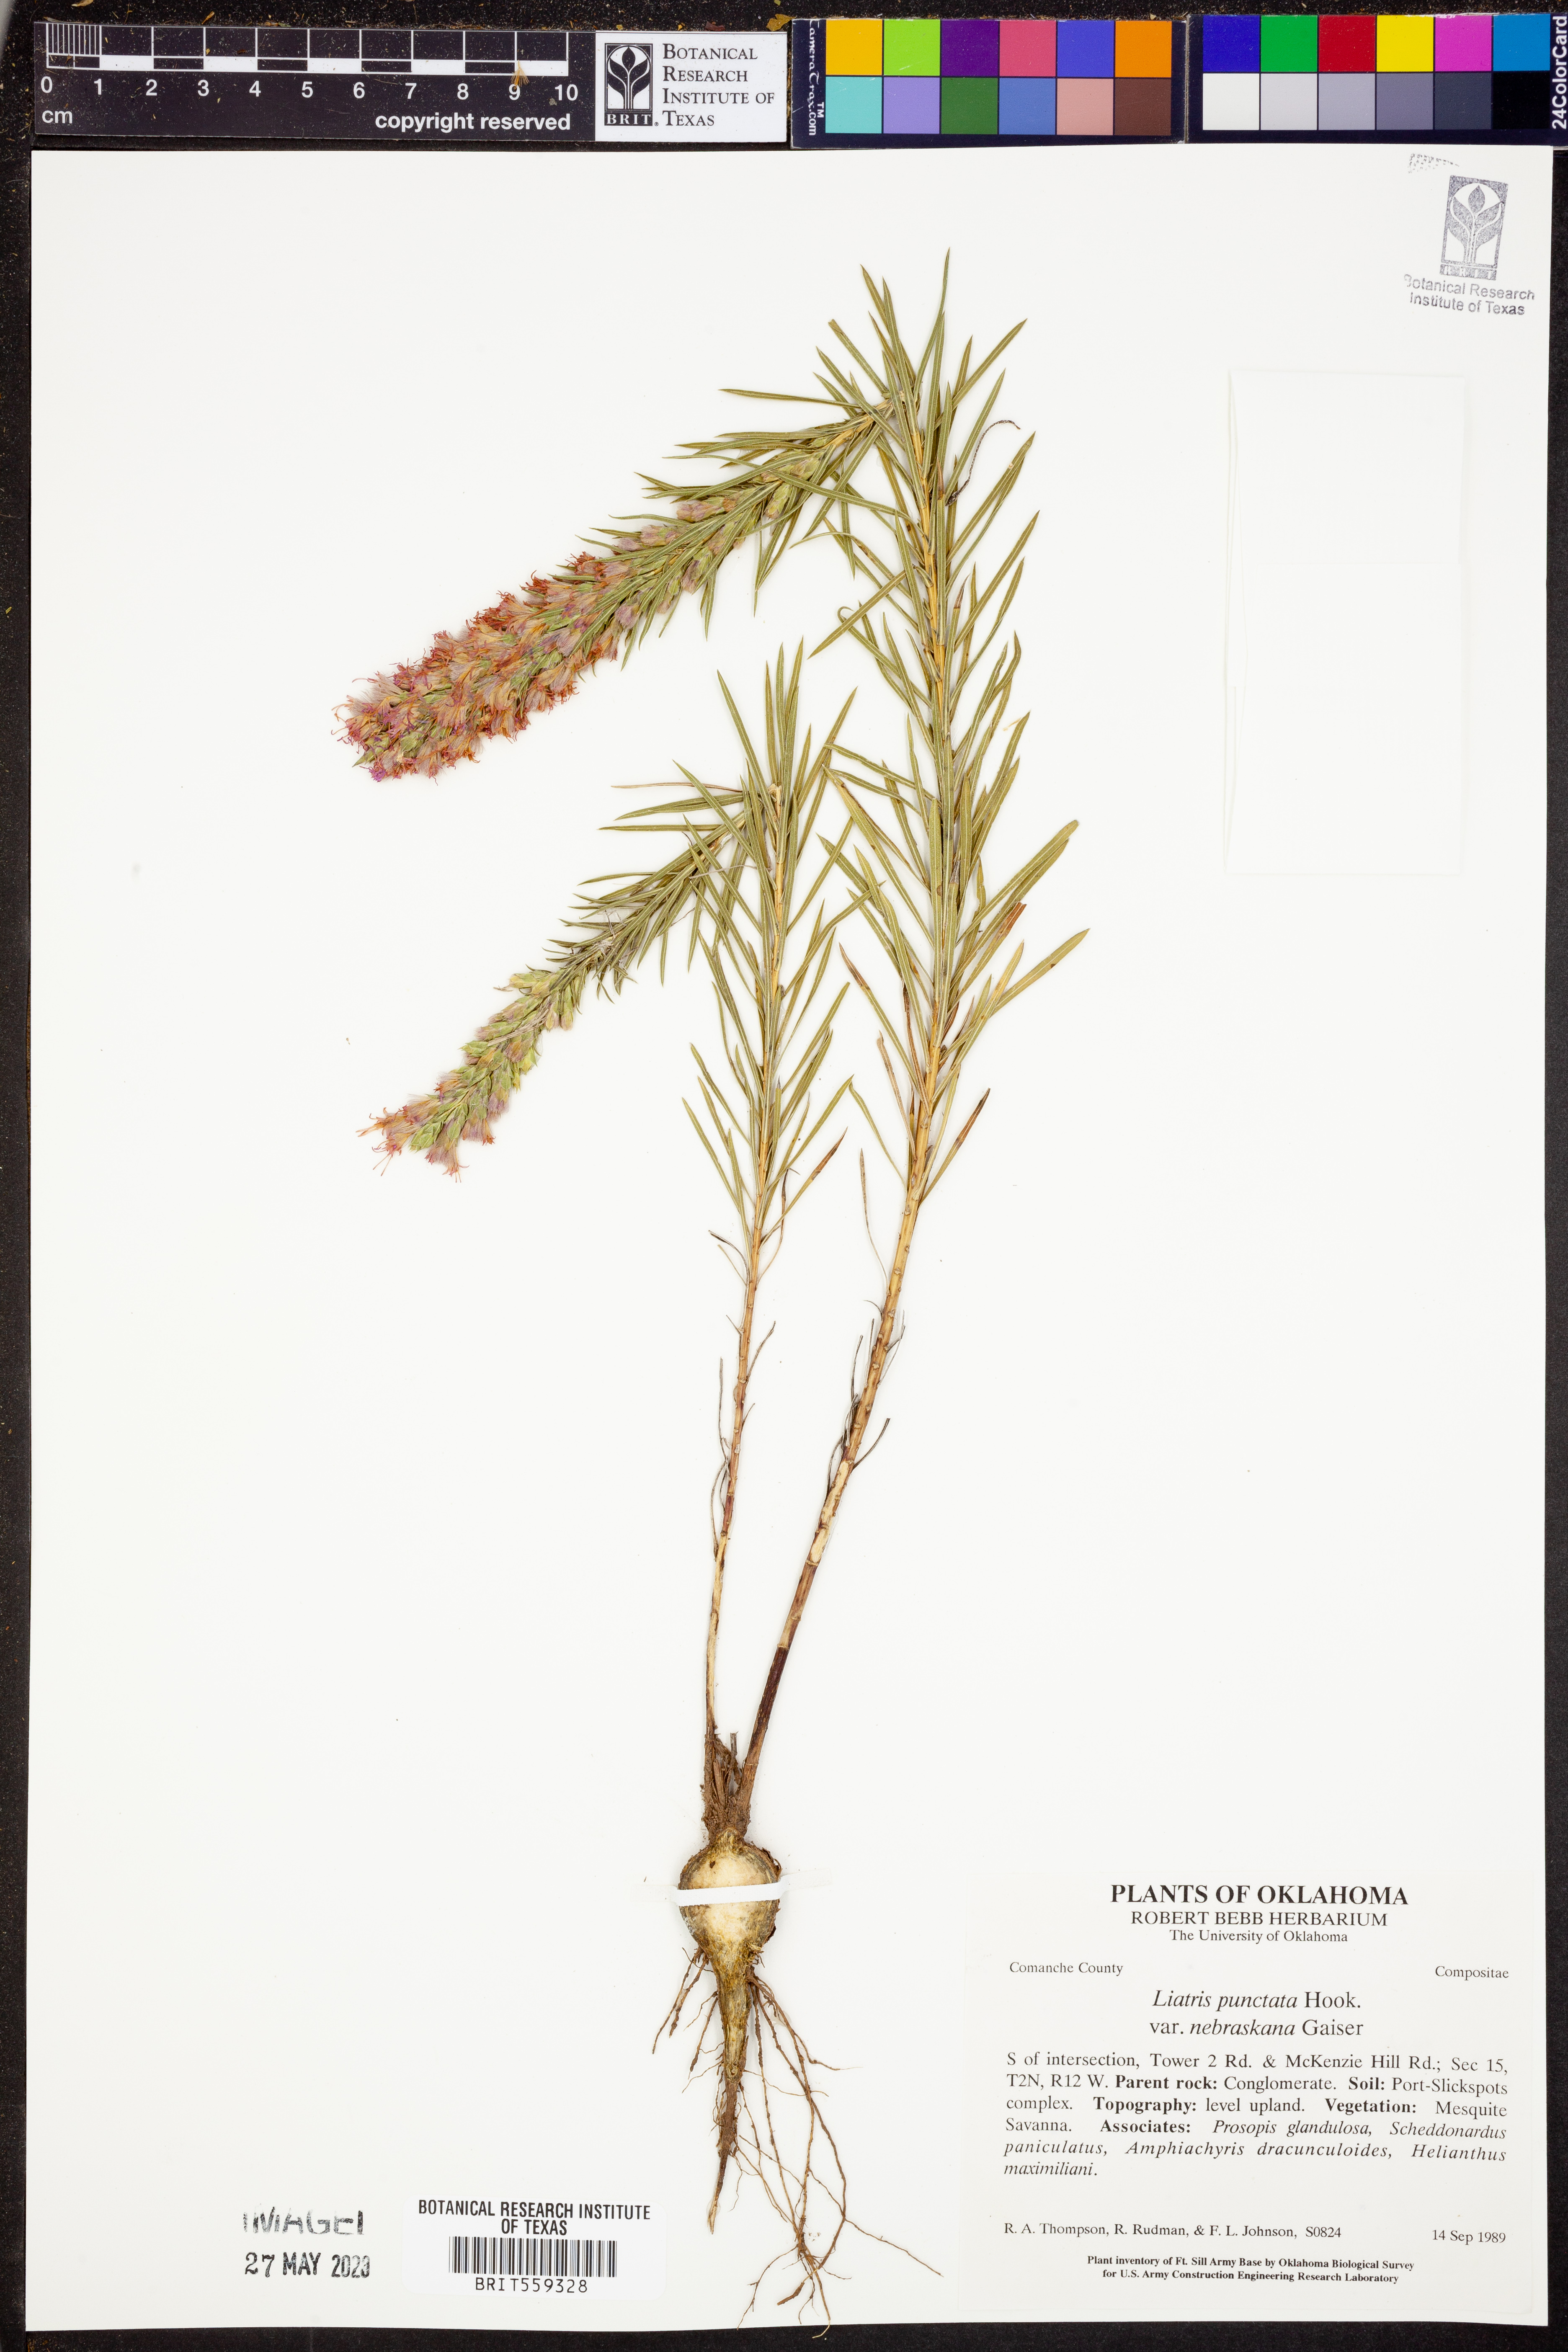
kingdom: Plantae
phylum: Tracheophyta
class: Magnoliopsida
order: Asterales
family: Asteraceae
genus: Liatris
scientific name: Liatris punctata
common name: Dotted gayfeather
